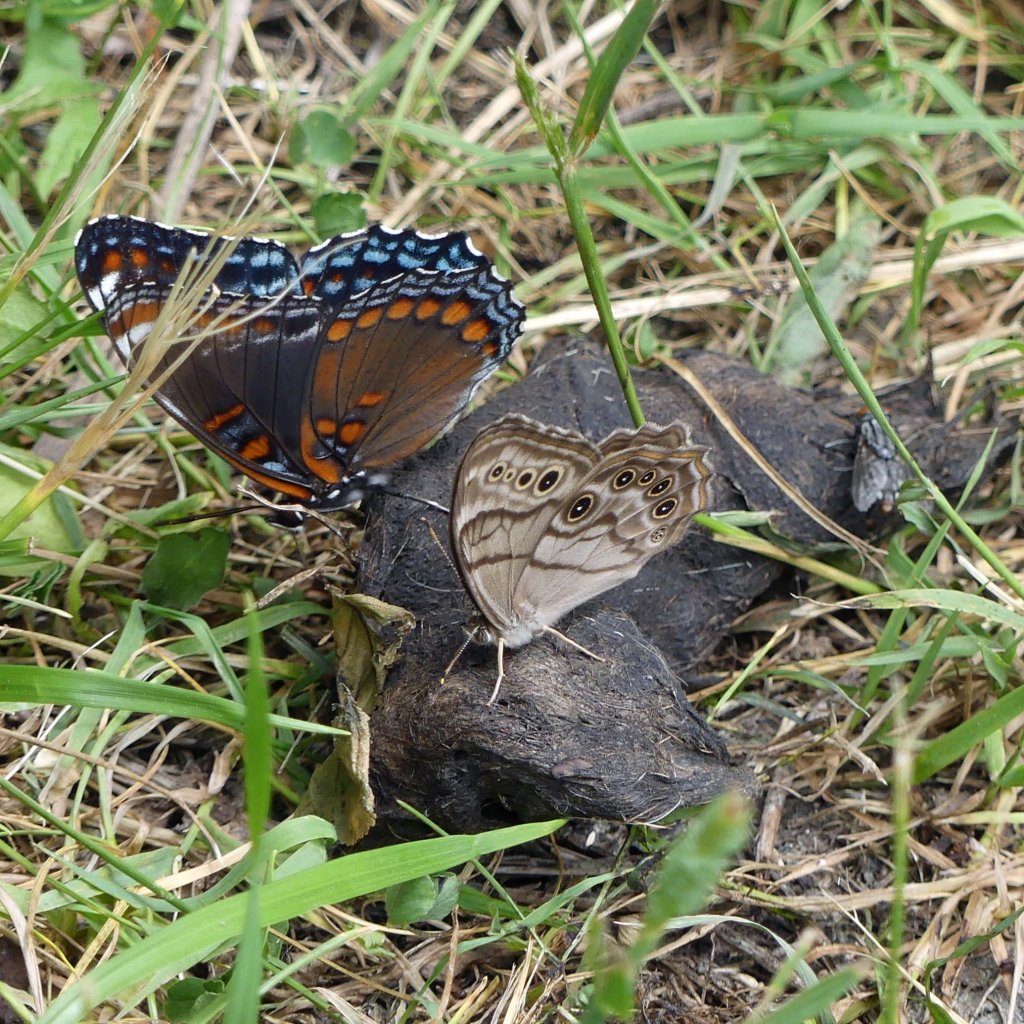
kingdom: Animalia
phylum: Arthropoda
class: Insecta
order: Lepidoptera
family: Nymphalidae
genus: Limenitis
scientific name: Limenitis astyanax
